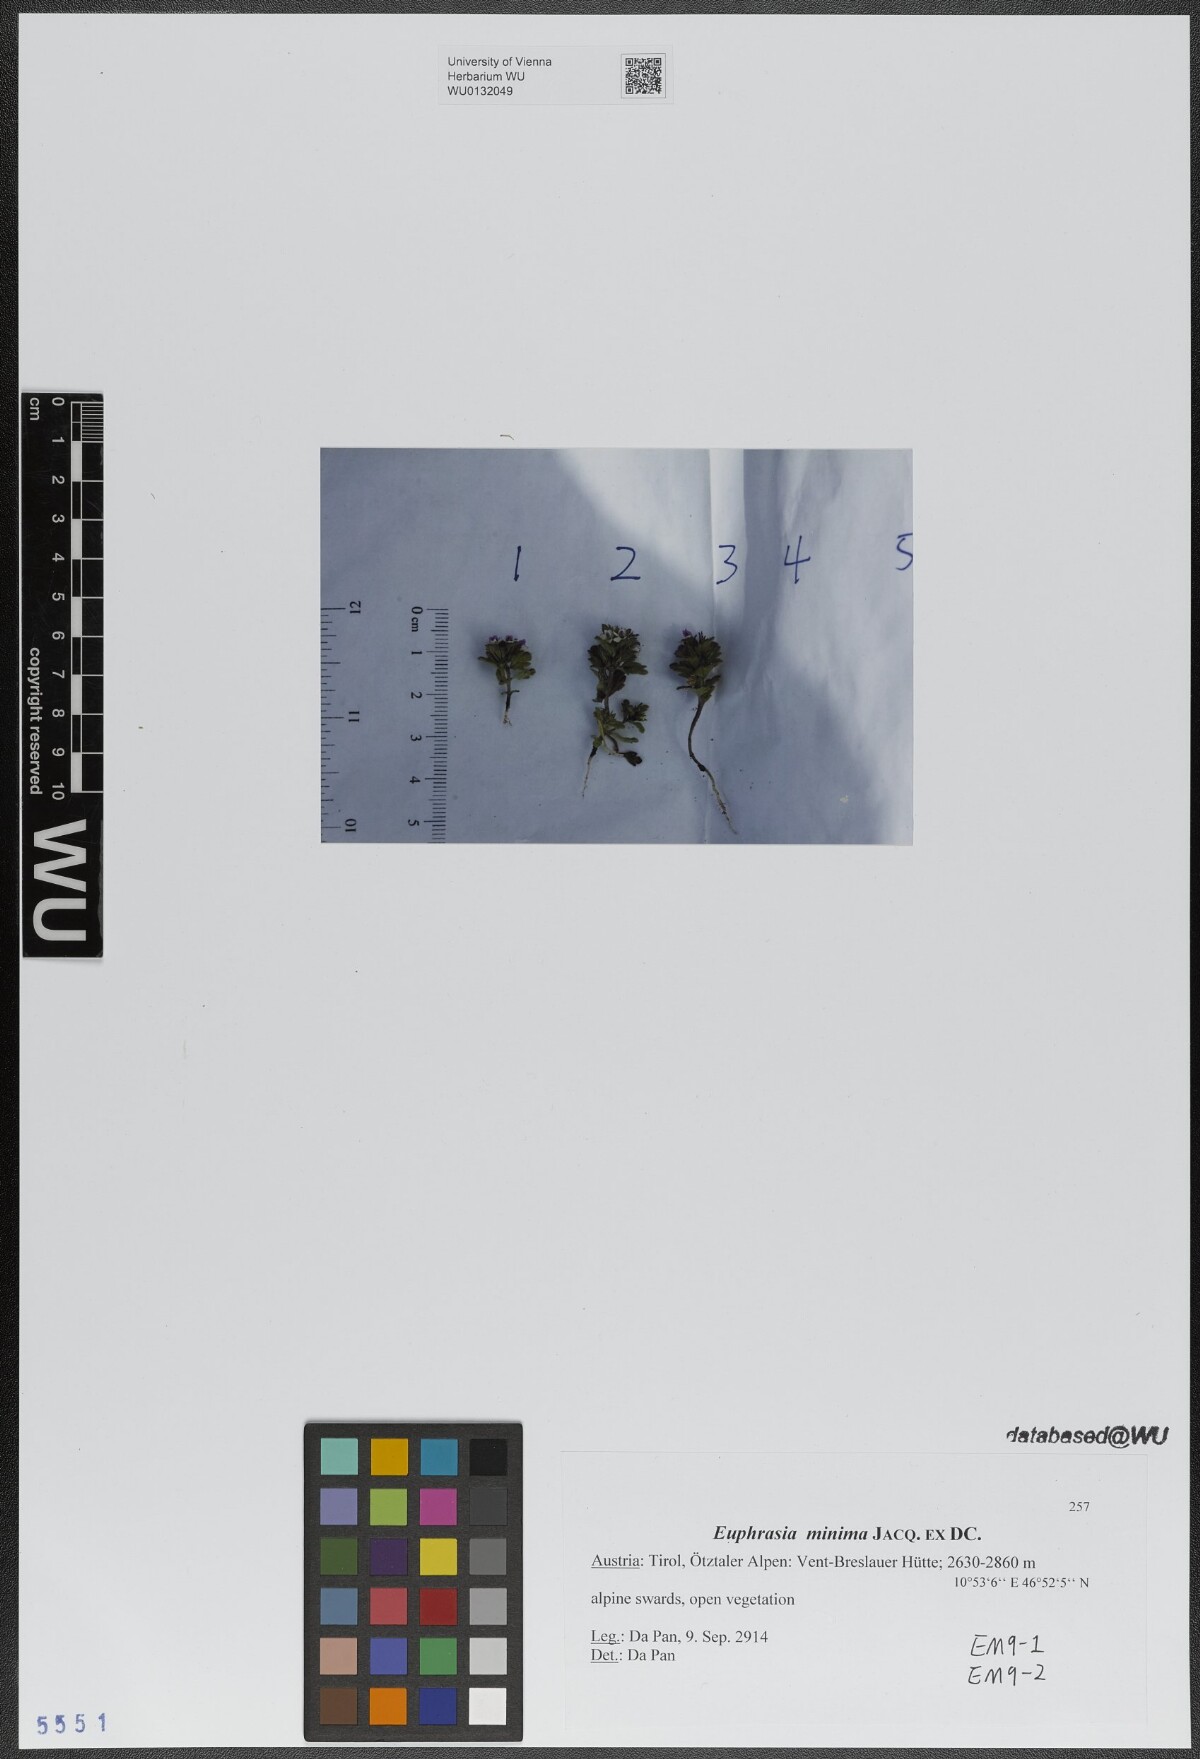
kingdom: Plantae
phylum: Tracheophyta
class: Magnoliopsida
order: Lamiales
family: Orobanchaceae
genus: Euphrasia
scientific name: Euphrasia minima
